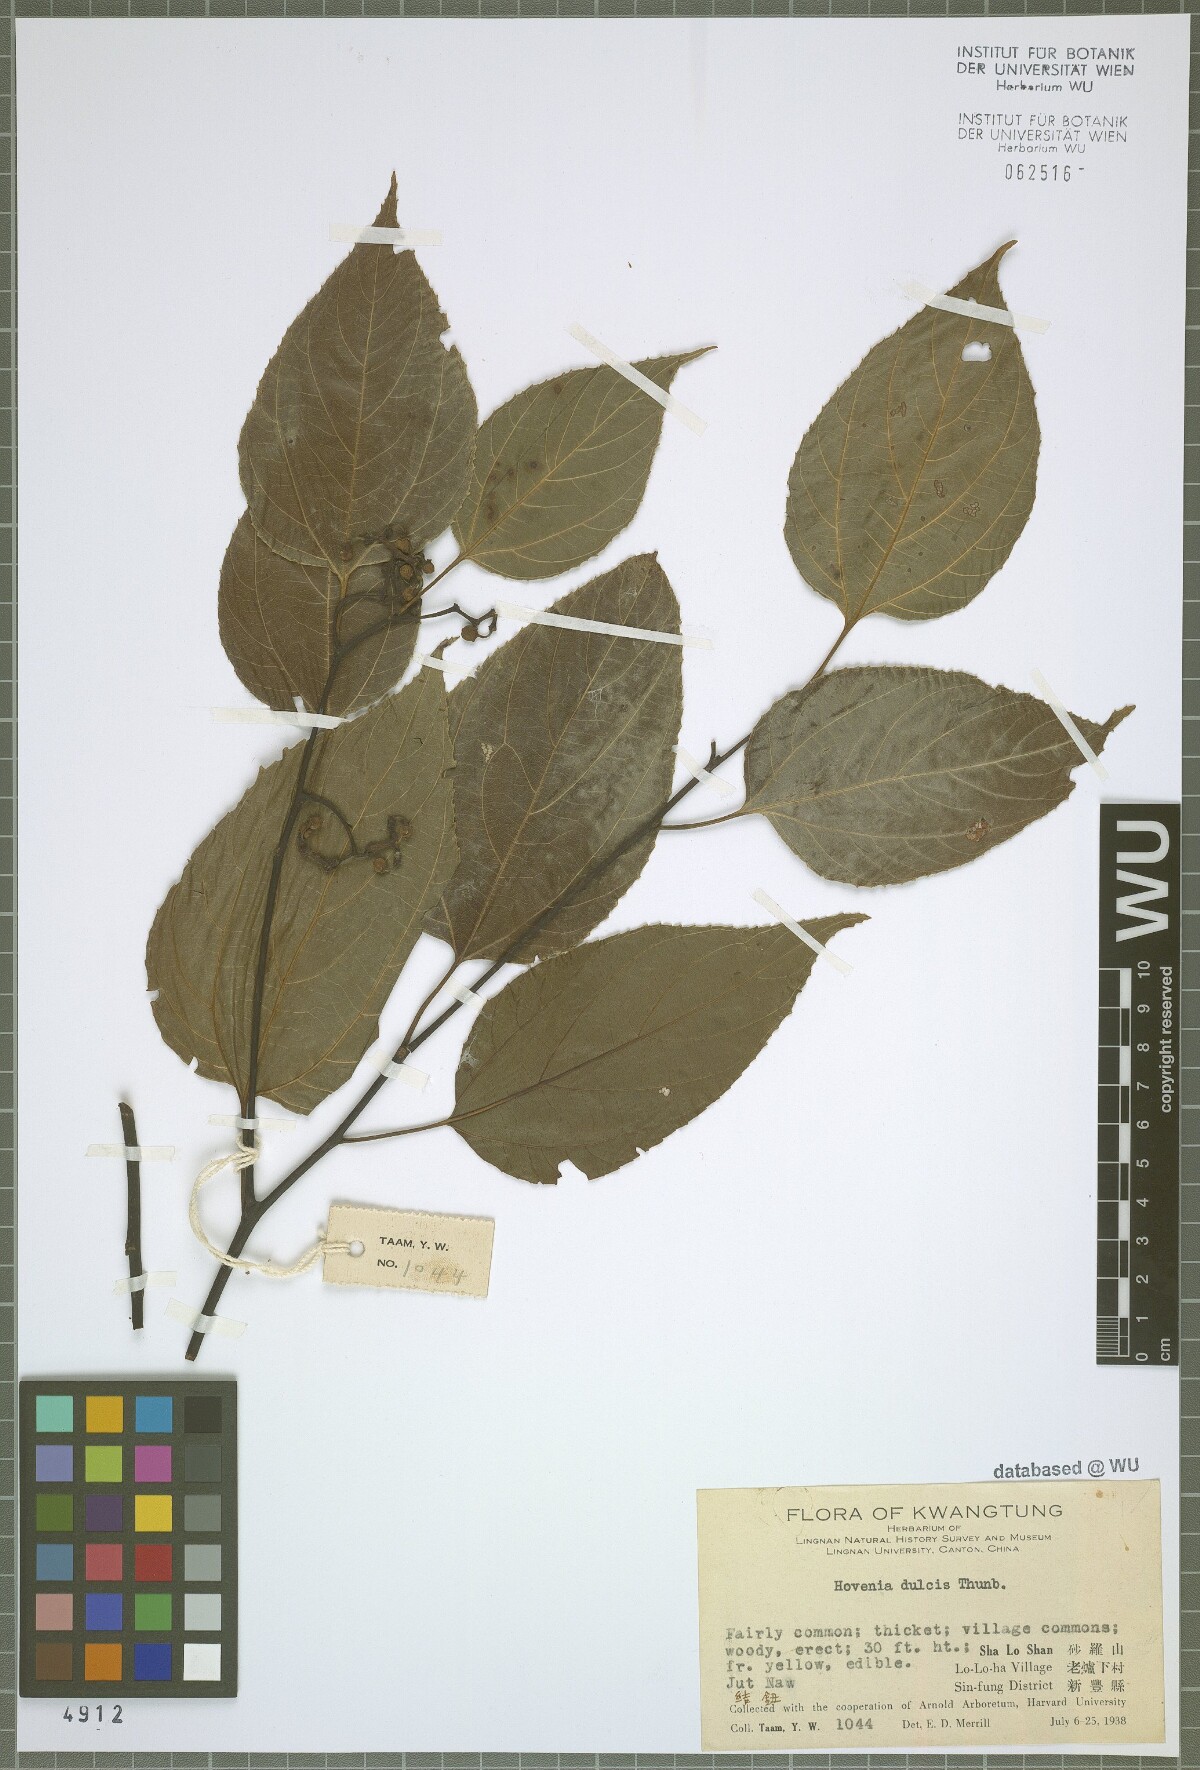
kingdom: Plantae
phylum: Tracheophyta
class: Magnoliopsida
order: Rosales
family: Rhamnaceae
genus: Hovenia
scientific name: Hovenia dulcis
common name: Japanese raisintree
